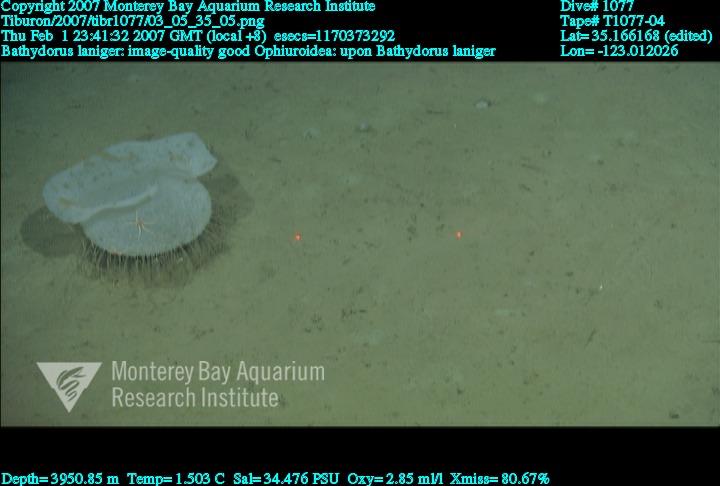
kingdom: Animalia
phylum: Porifera
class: Hexactinellida
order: Lyssacinosida
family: Rossellidae
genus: Bathydorus
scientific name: Bathydorus laniger
